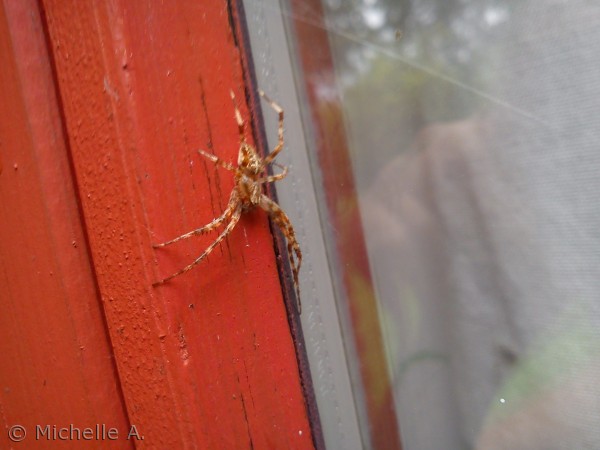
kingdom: Animalia
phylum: Arthropoda
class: Arachnida
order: Araneae
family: Araneidae
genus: Araneus
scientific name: Araneus diadematus
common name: Korsedderkop
